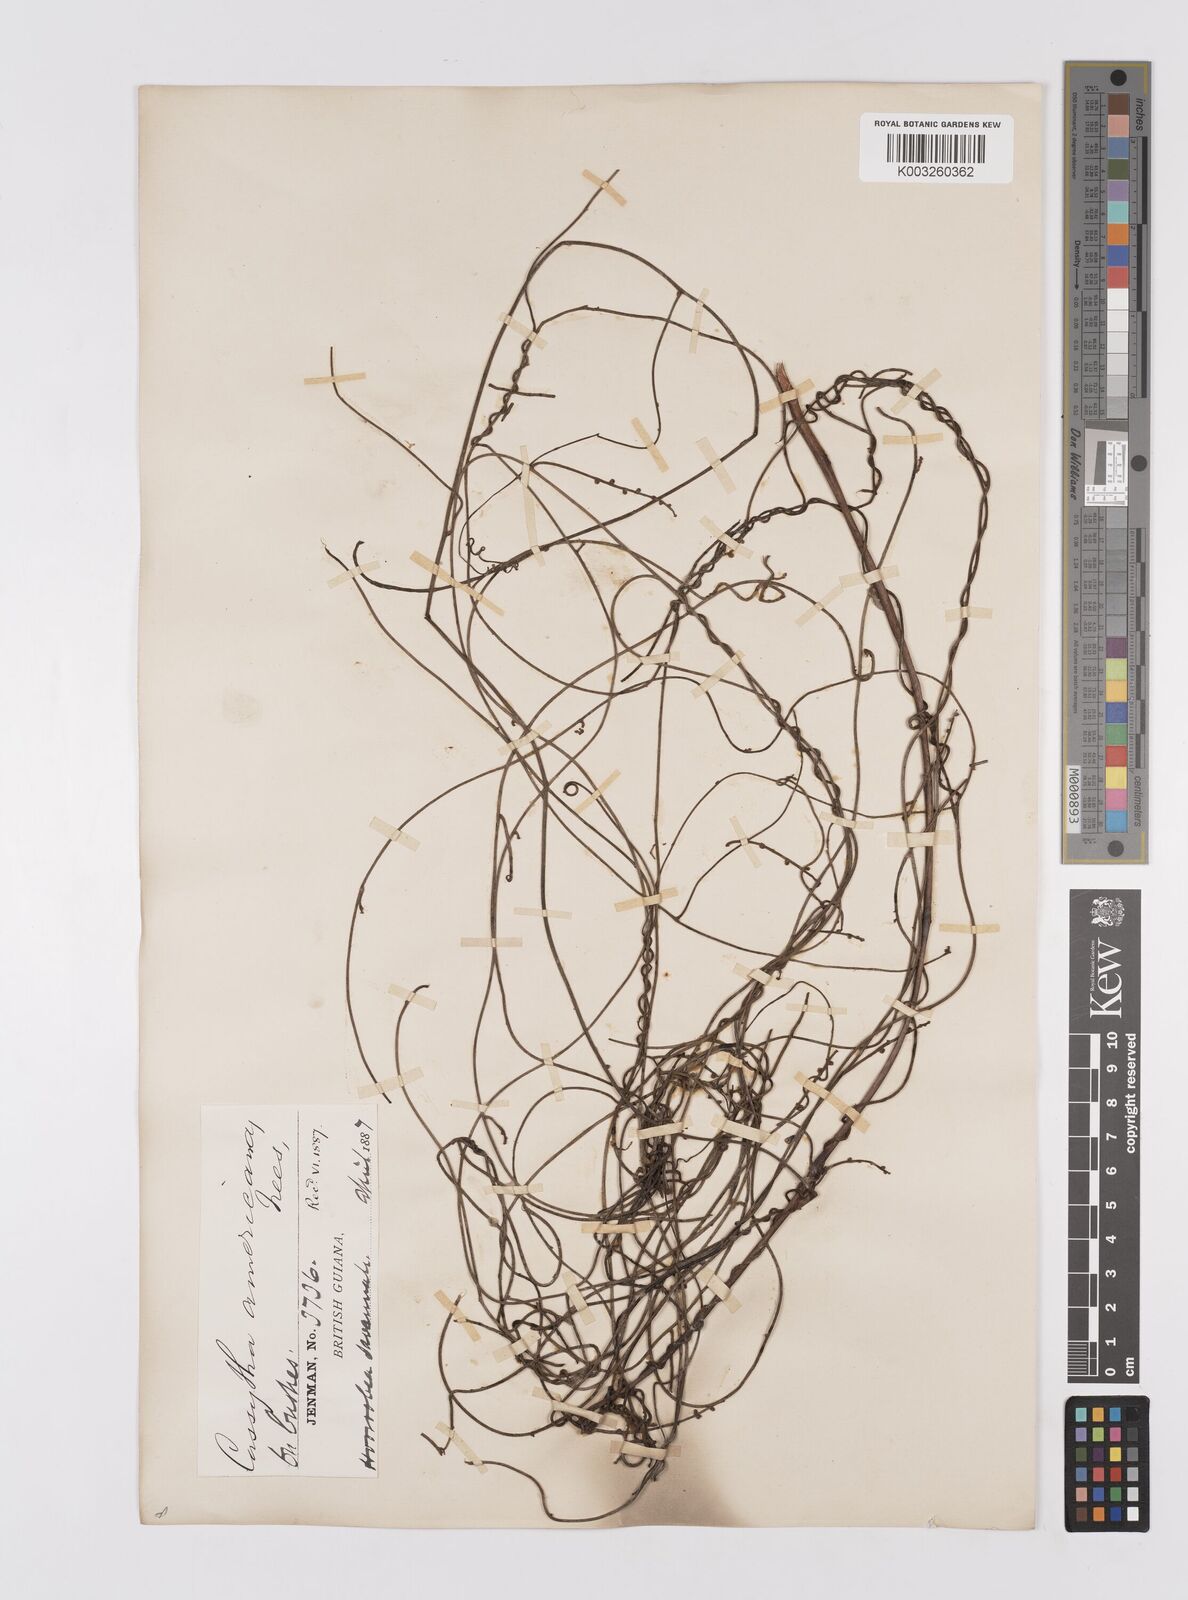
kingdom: Plantae
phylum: Tracheophyta
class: Magnoliopsida
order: Laurales
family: Lauraceae
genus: Cassytha
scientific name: Cassytha filiformis
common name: Dodder-laurel
